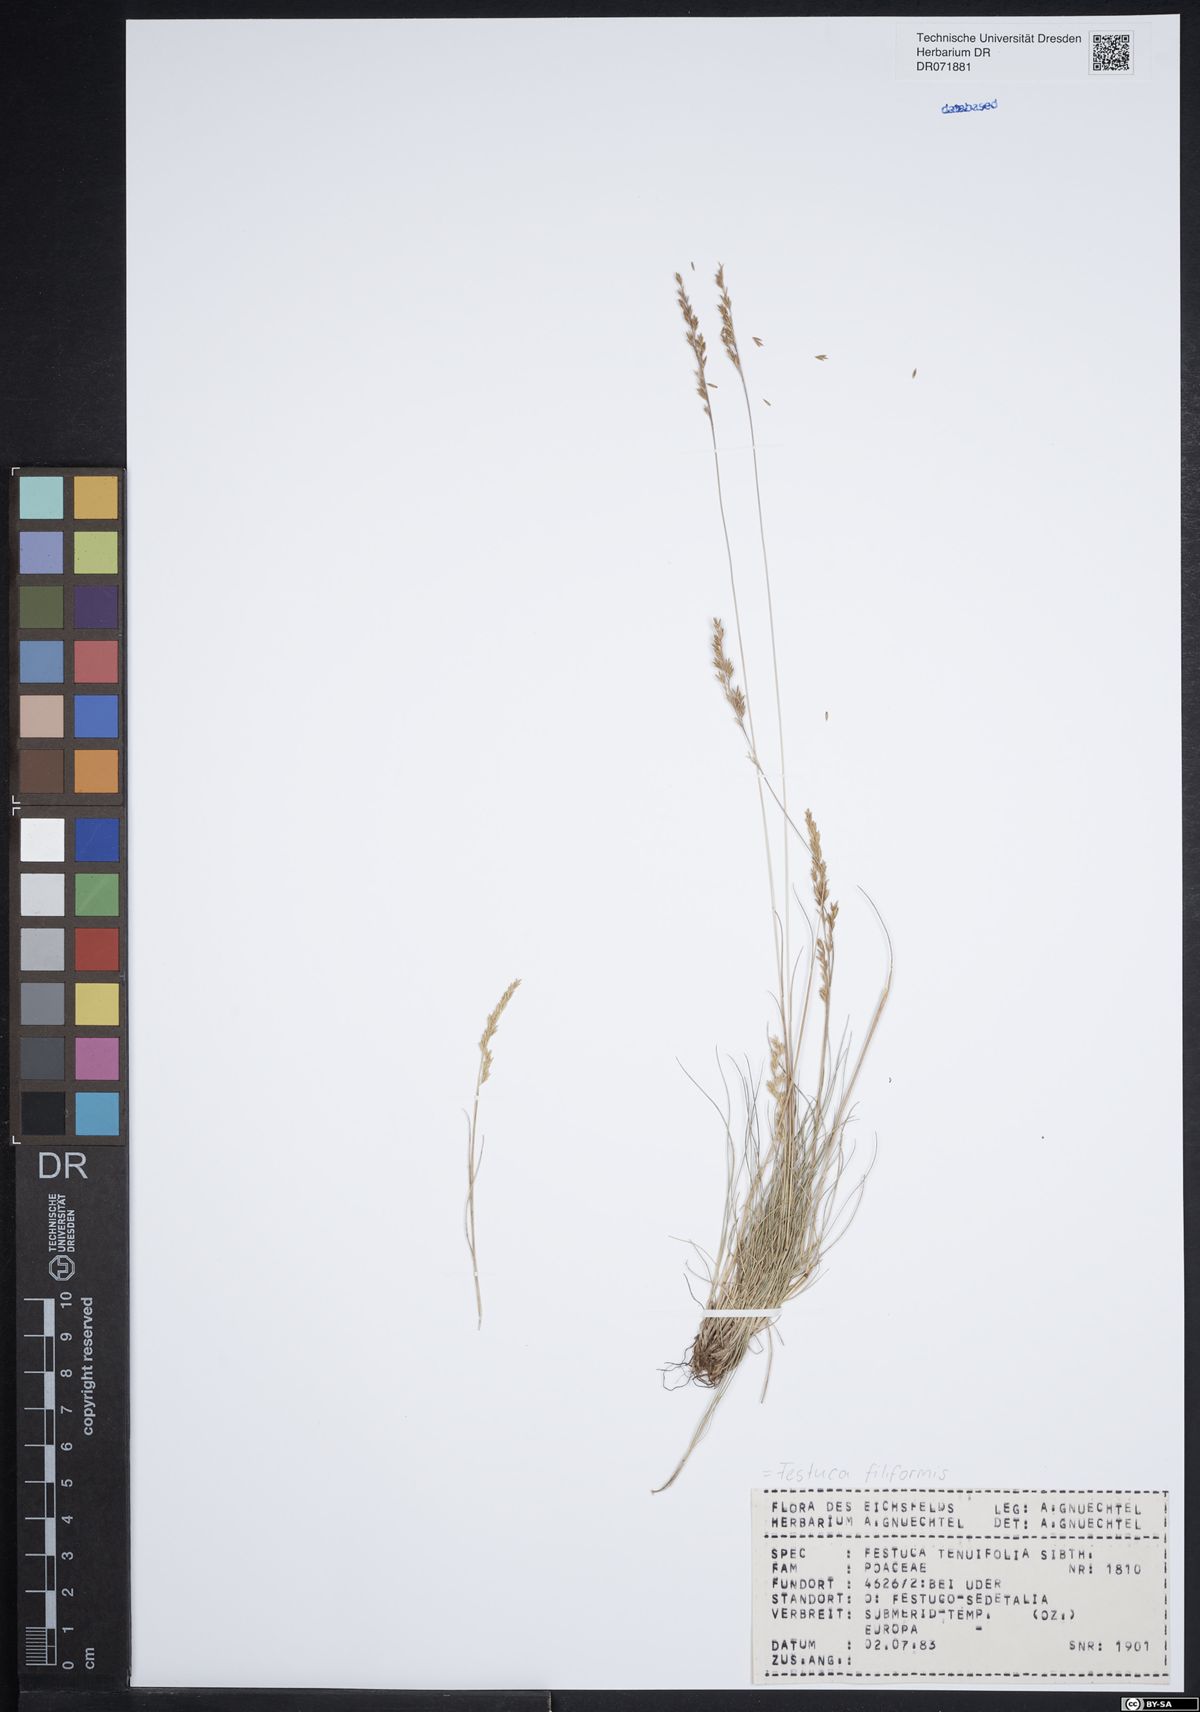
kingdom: Plantae
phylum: Tracheophyta
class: Liliopsida
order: Poales
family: Poaceae
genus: Festuca
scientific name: Festuca filiformis
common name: Fine-leaved sheep's-fescue
